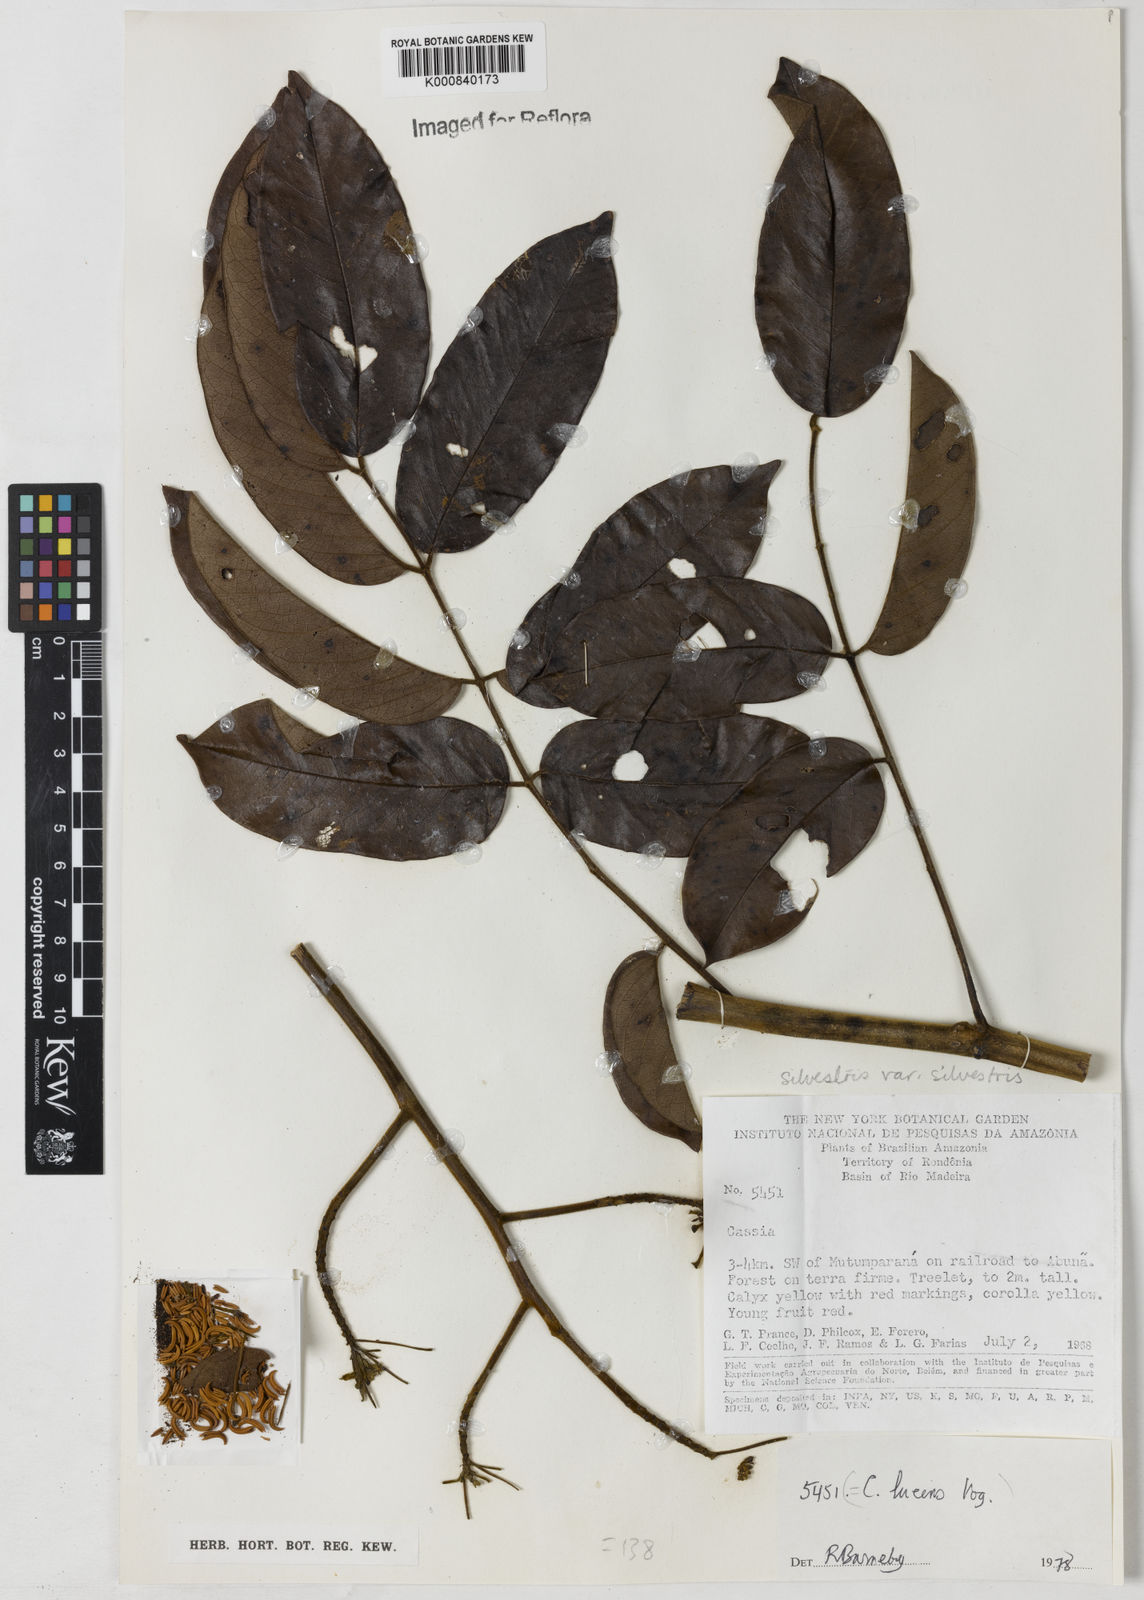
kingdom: Plantae
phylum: Tracheophyta
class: Magnoliopsida
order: Fabales
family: Fabaceae
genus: Senna
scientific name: Senna silvestris
